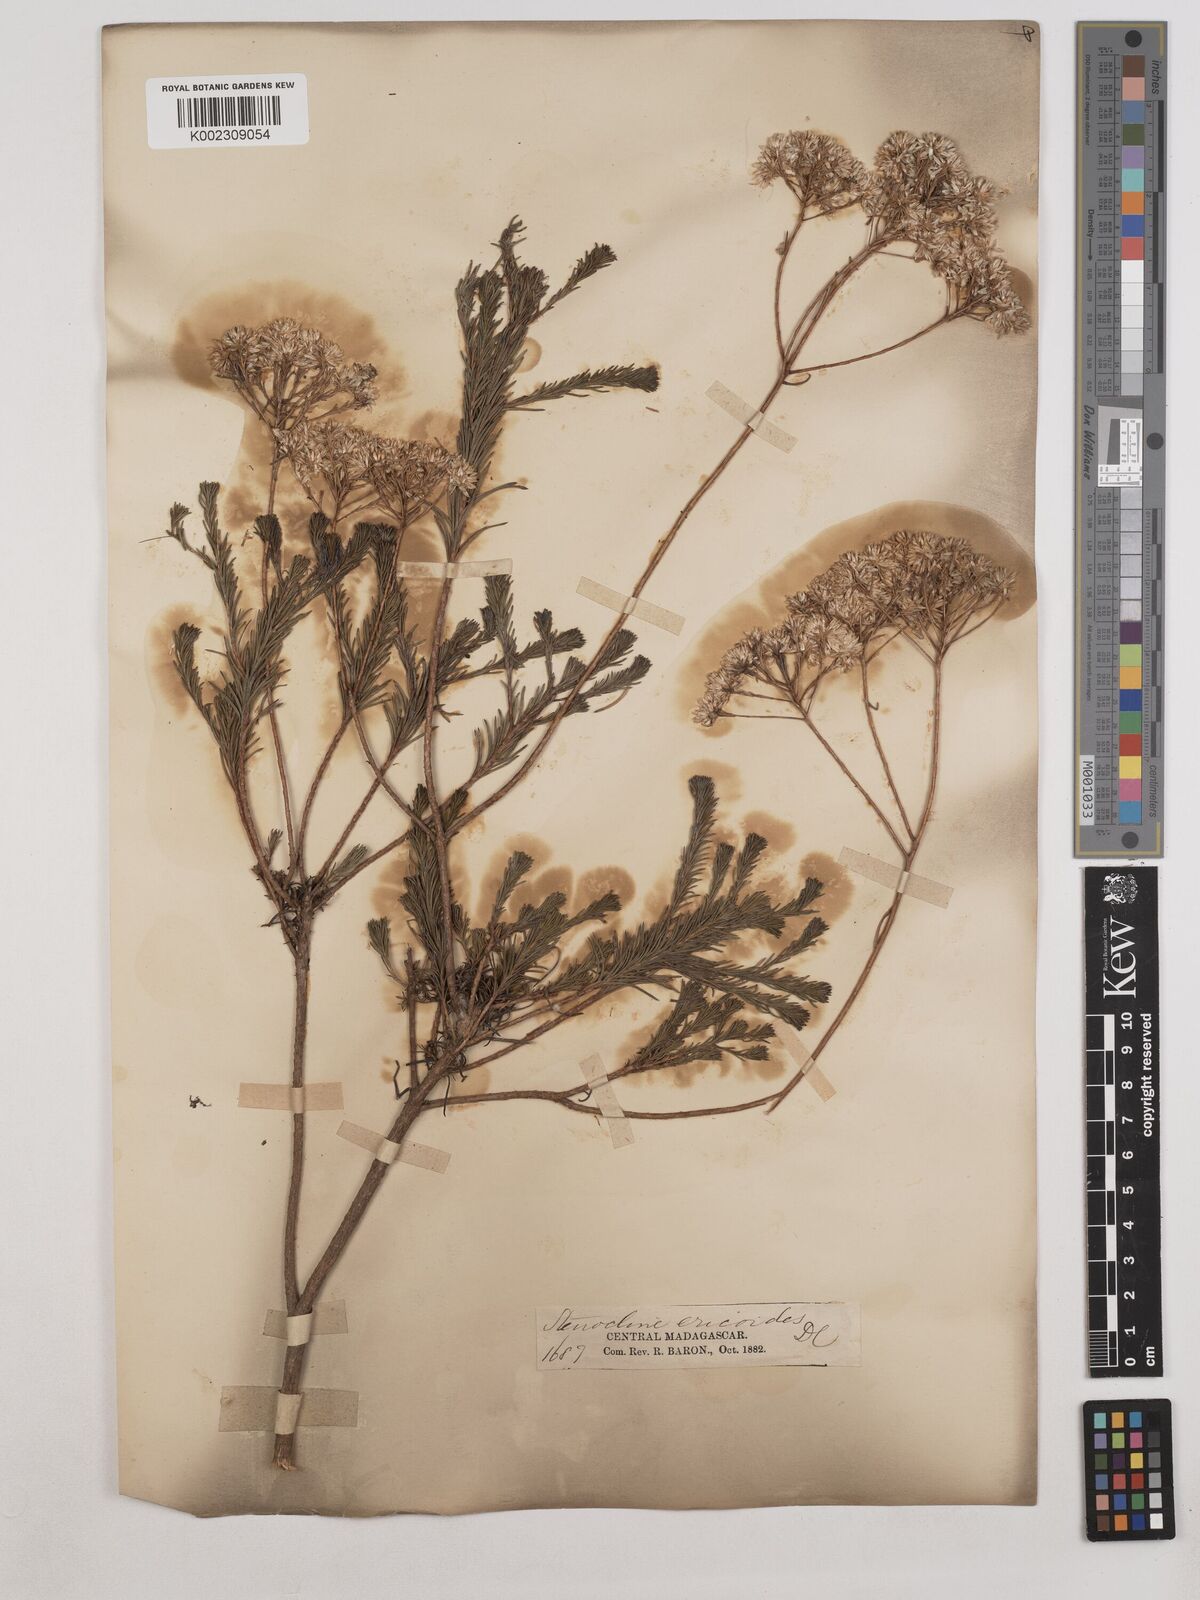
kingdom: Plantae
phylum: Tracheophyta
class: Magnoliopsida
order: Asterales
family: Asteraceae
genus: Stenocline
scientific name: Stenocline ericoides
